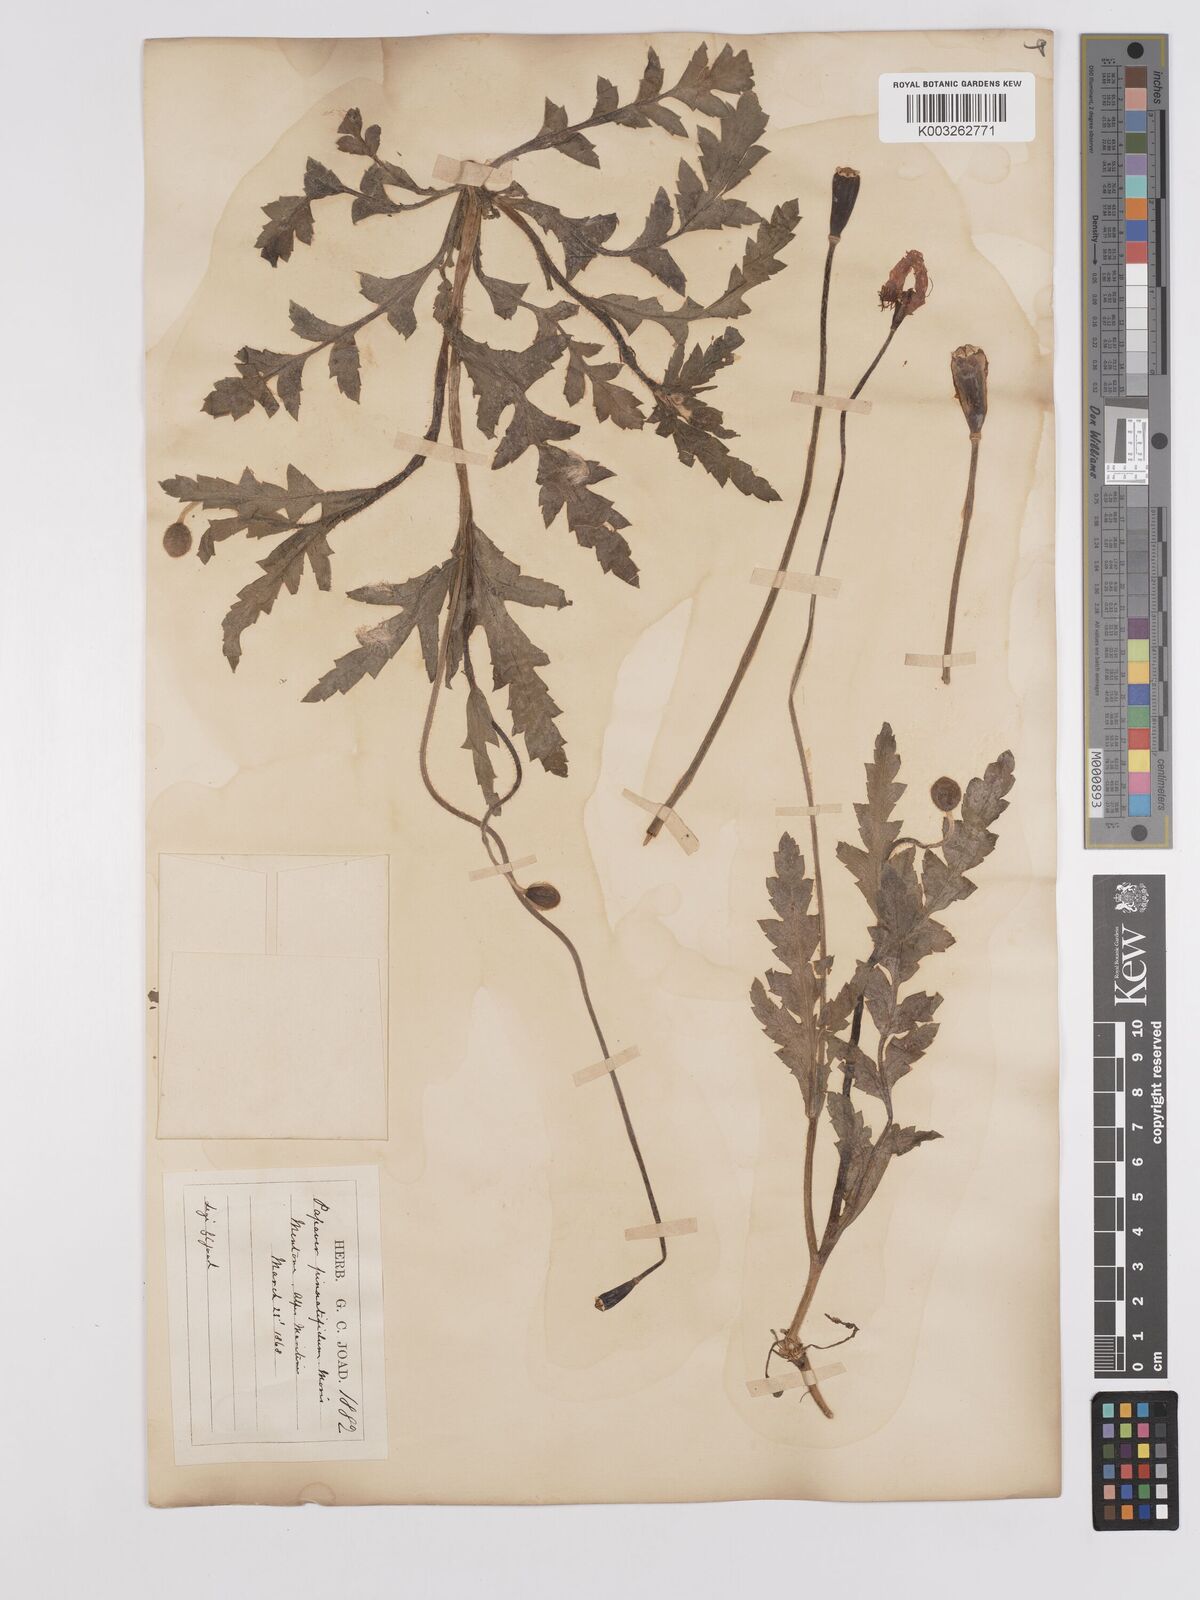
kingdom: Plantae
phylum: Tracheophyta
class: Magnoliopsida
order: Ranunculales
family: Papaveraceae
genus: Papaver
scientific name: Papaver pinnatifidum
